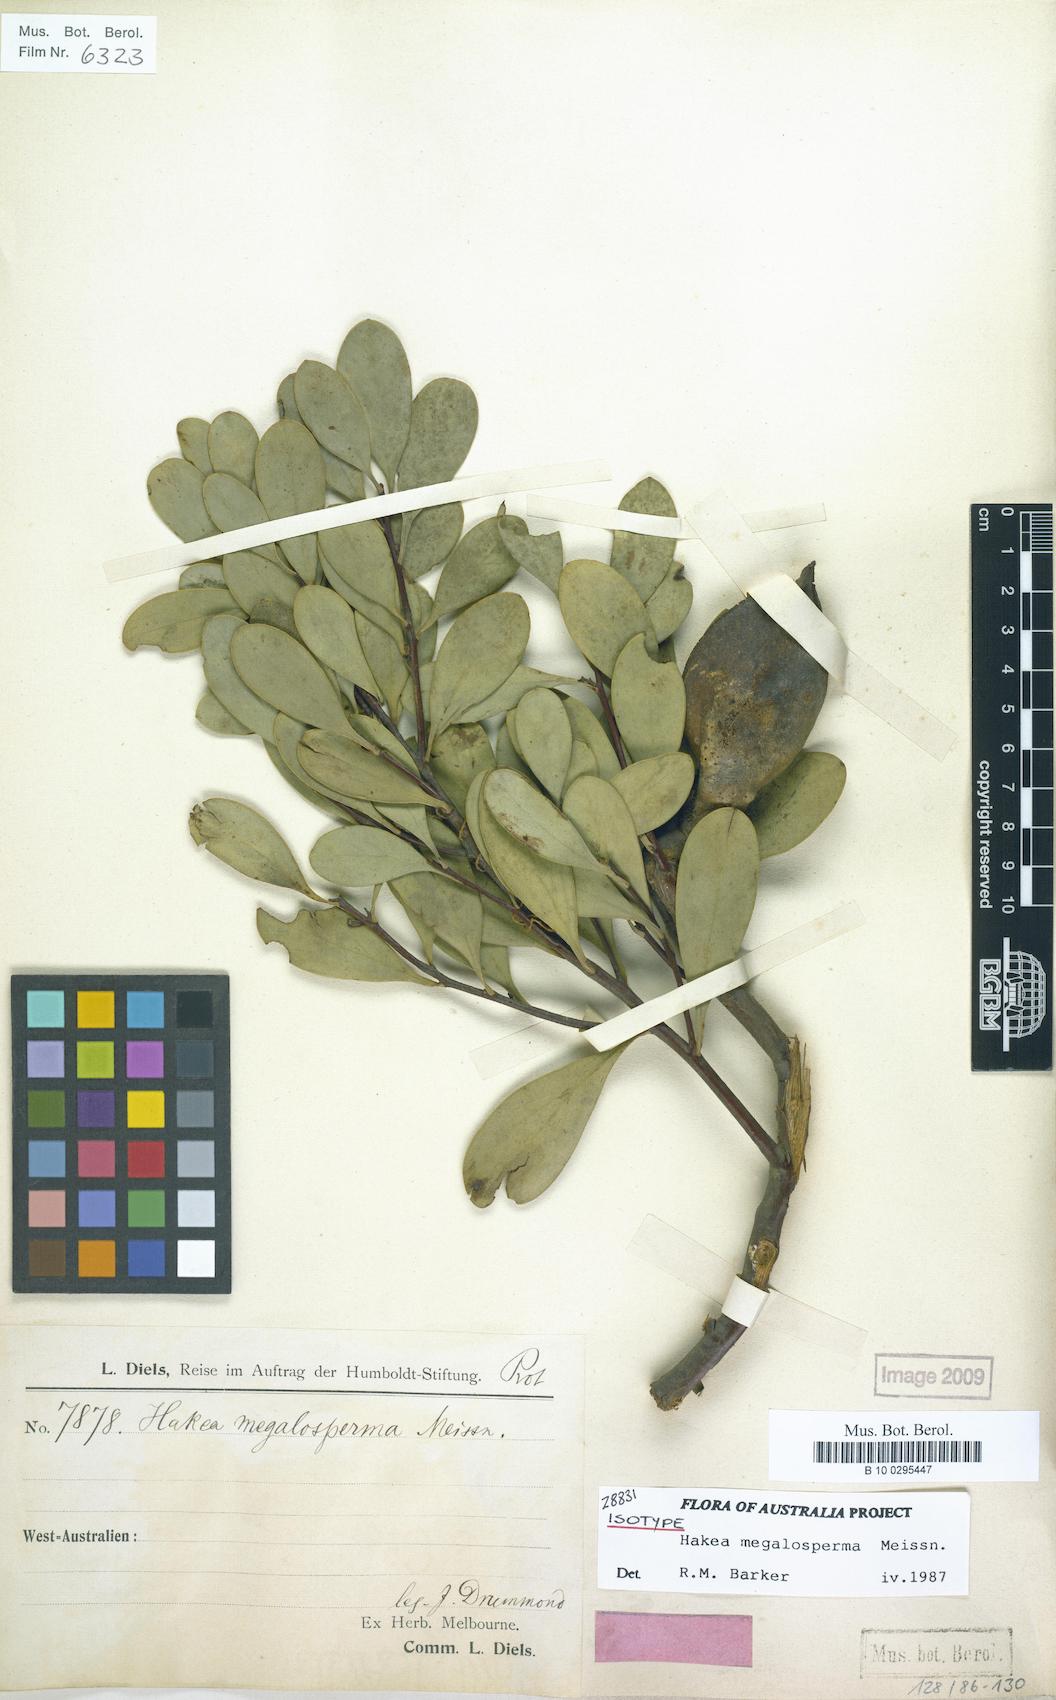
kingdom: Plantae
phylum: Tracheophyta
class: Magnoliopsida
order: Proteales
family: Proteaceae
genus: Hakea
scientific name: Hakea megalosperma
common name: Lesueur hakea
